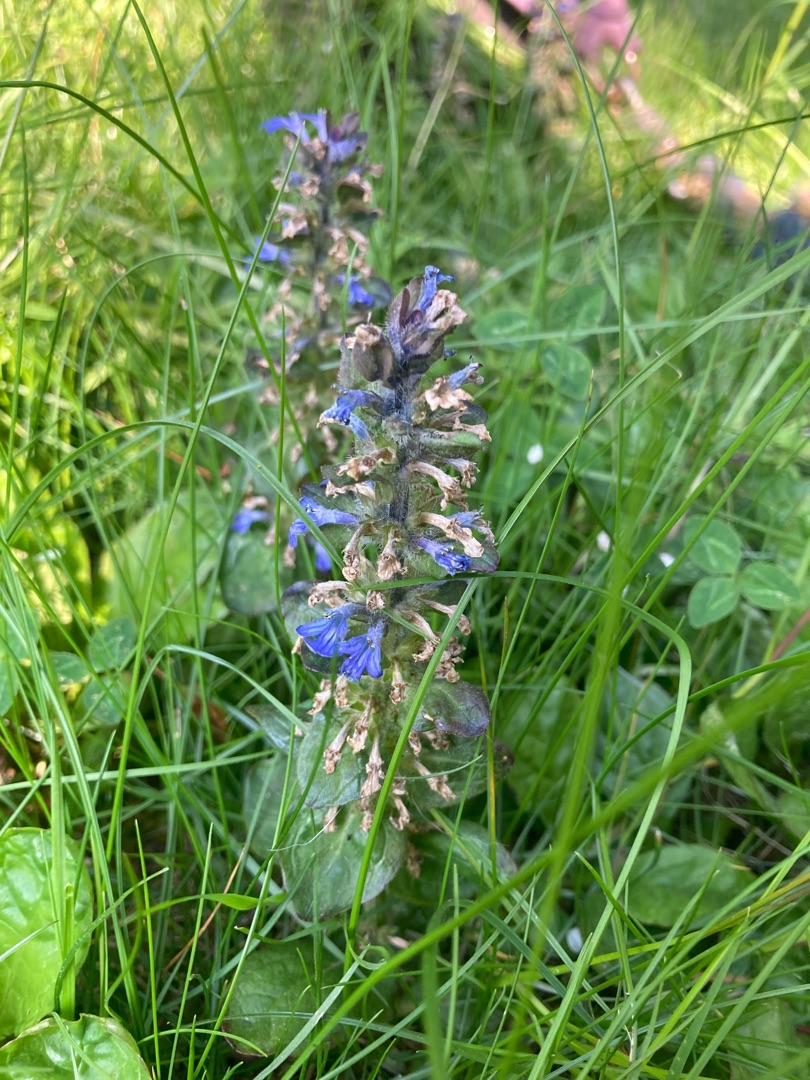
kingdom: Plantae
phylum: Tracheophyta
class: Magnoliopsida
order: Lamiales
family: Lamiaceae
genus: Ajuga
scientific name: Ajuga reptans
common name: Krybende læbeløs
